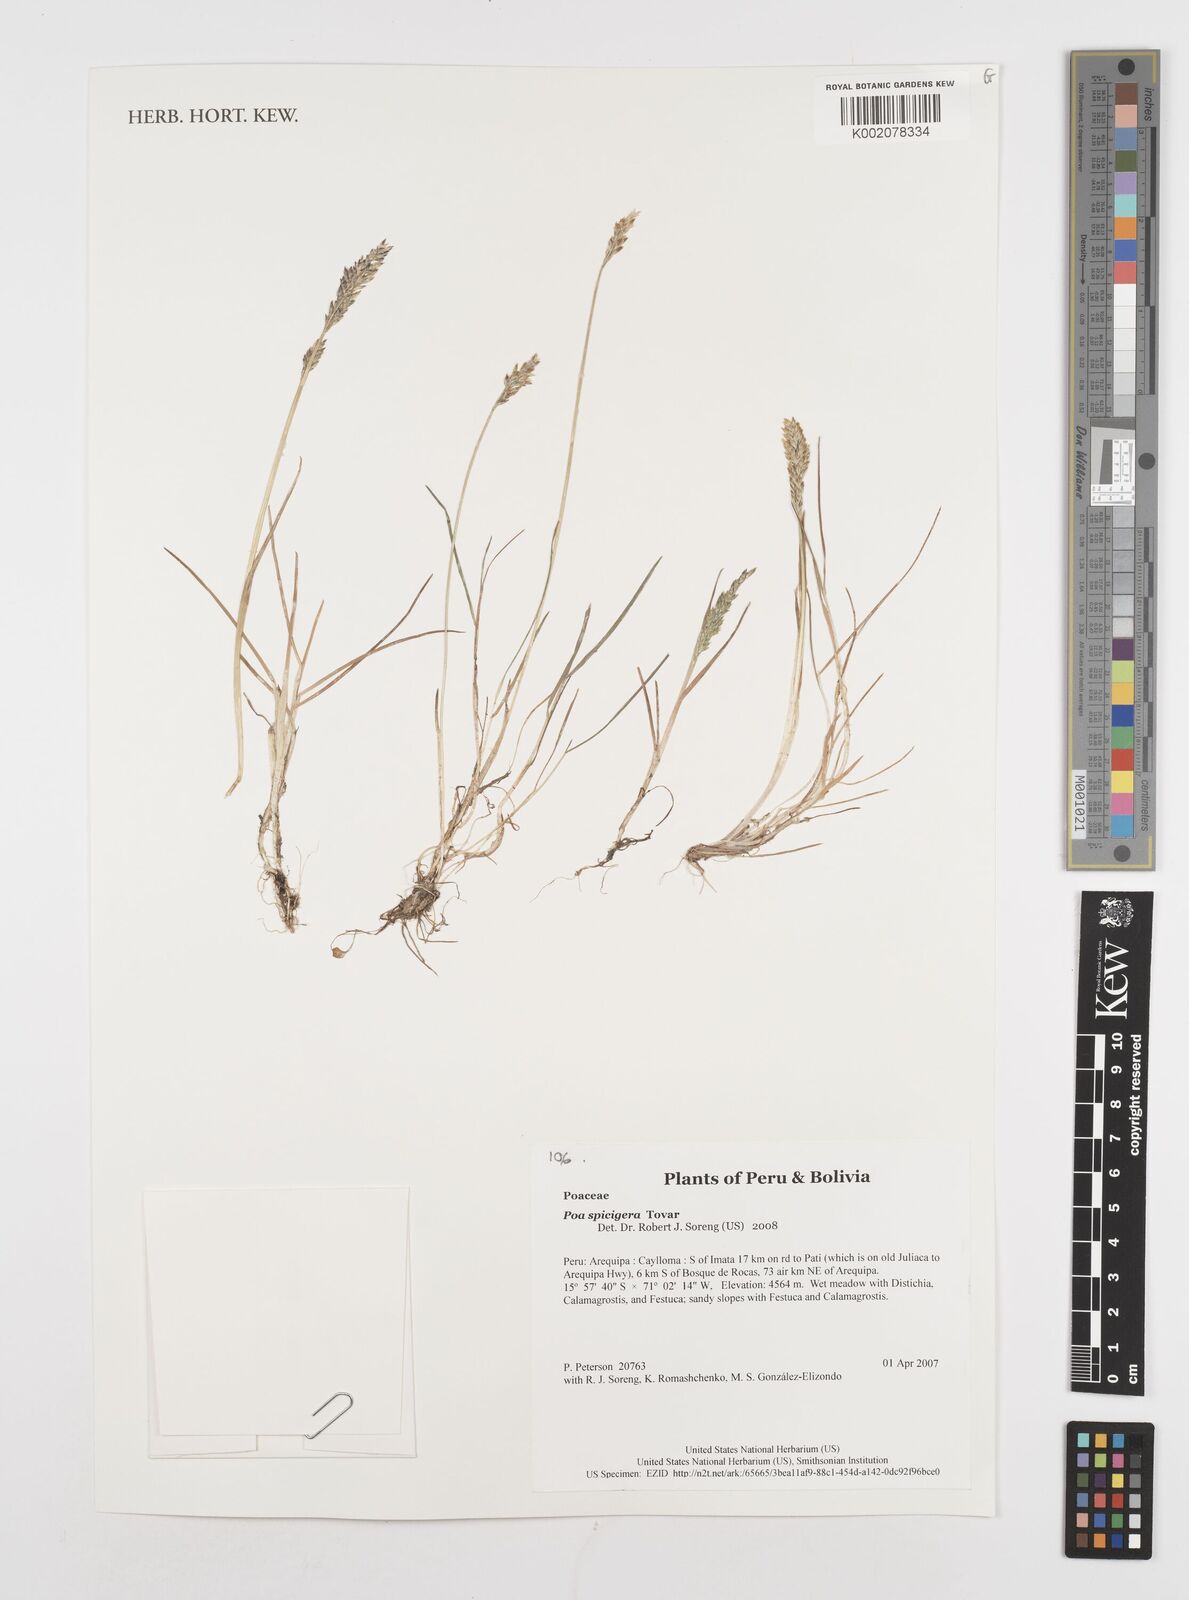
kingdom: Plantae
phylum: Tracheophyta
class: Liliopsida
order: Poales
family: Poaceae
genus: Poa
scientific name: Poa gymnantha
